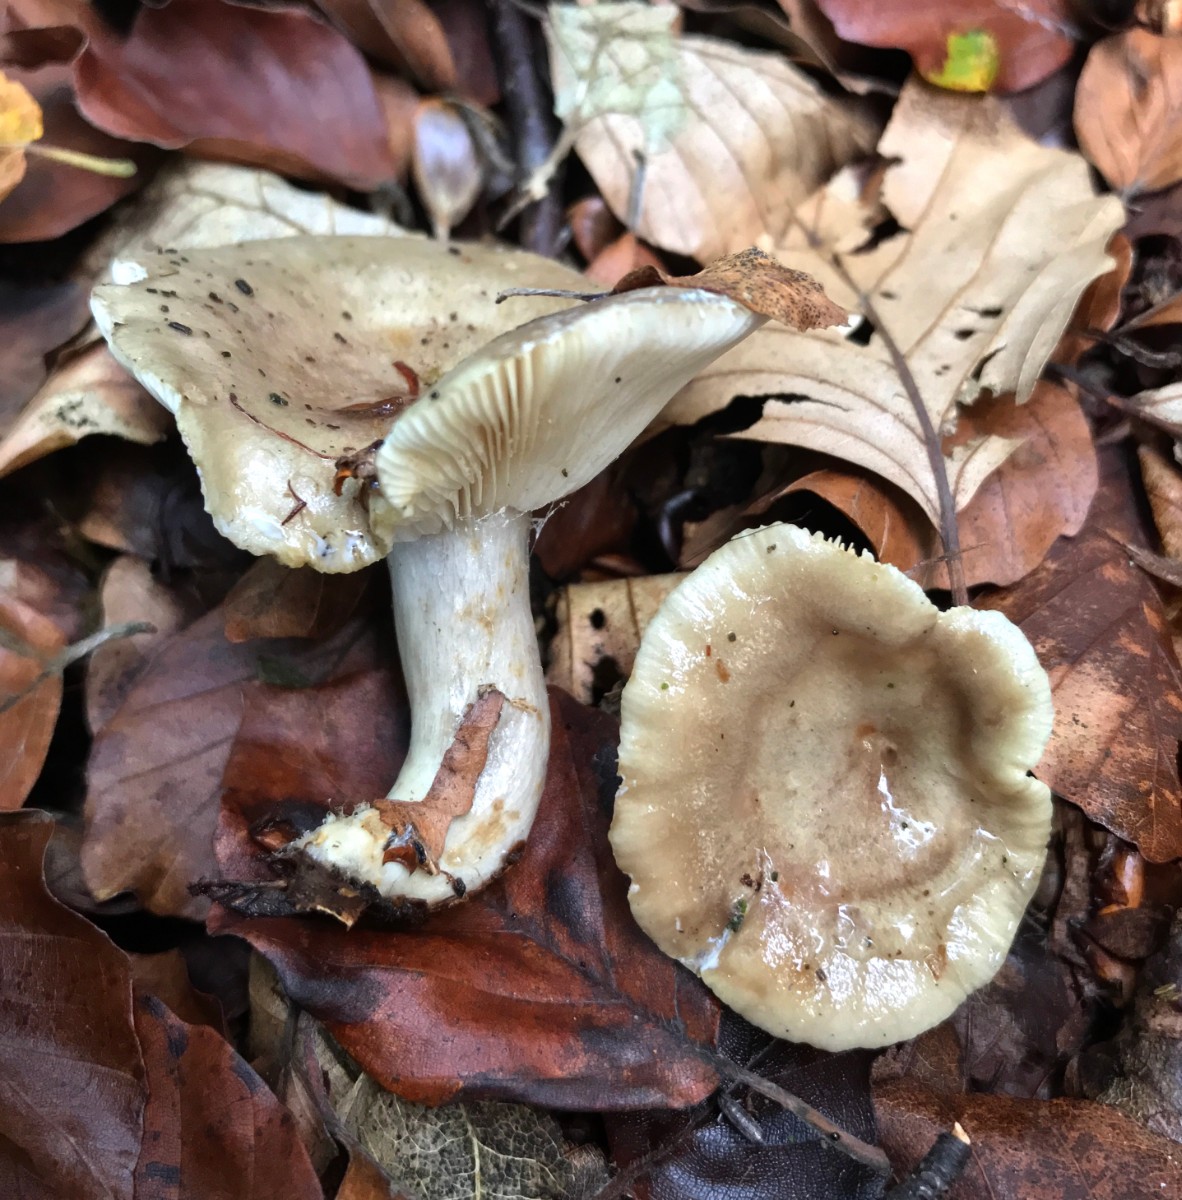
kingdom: Fungi
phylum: Basidiomycota
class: Agaricomycetes
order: Russulales
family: Russulaceae
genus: Lactarius
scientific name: Lactarius blennius
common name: dråbeplettet mælkehat
